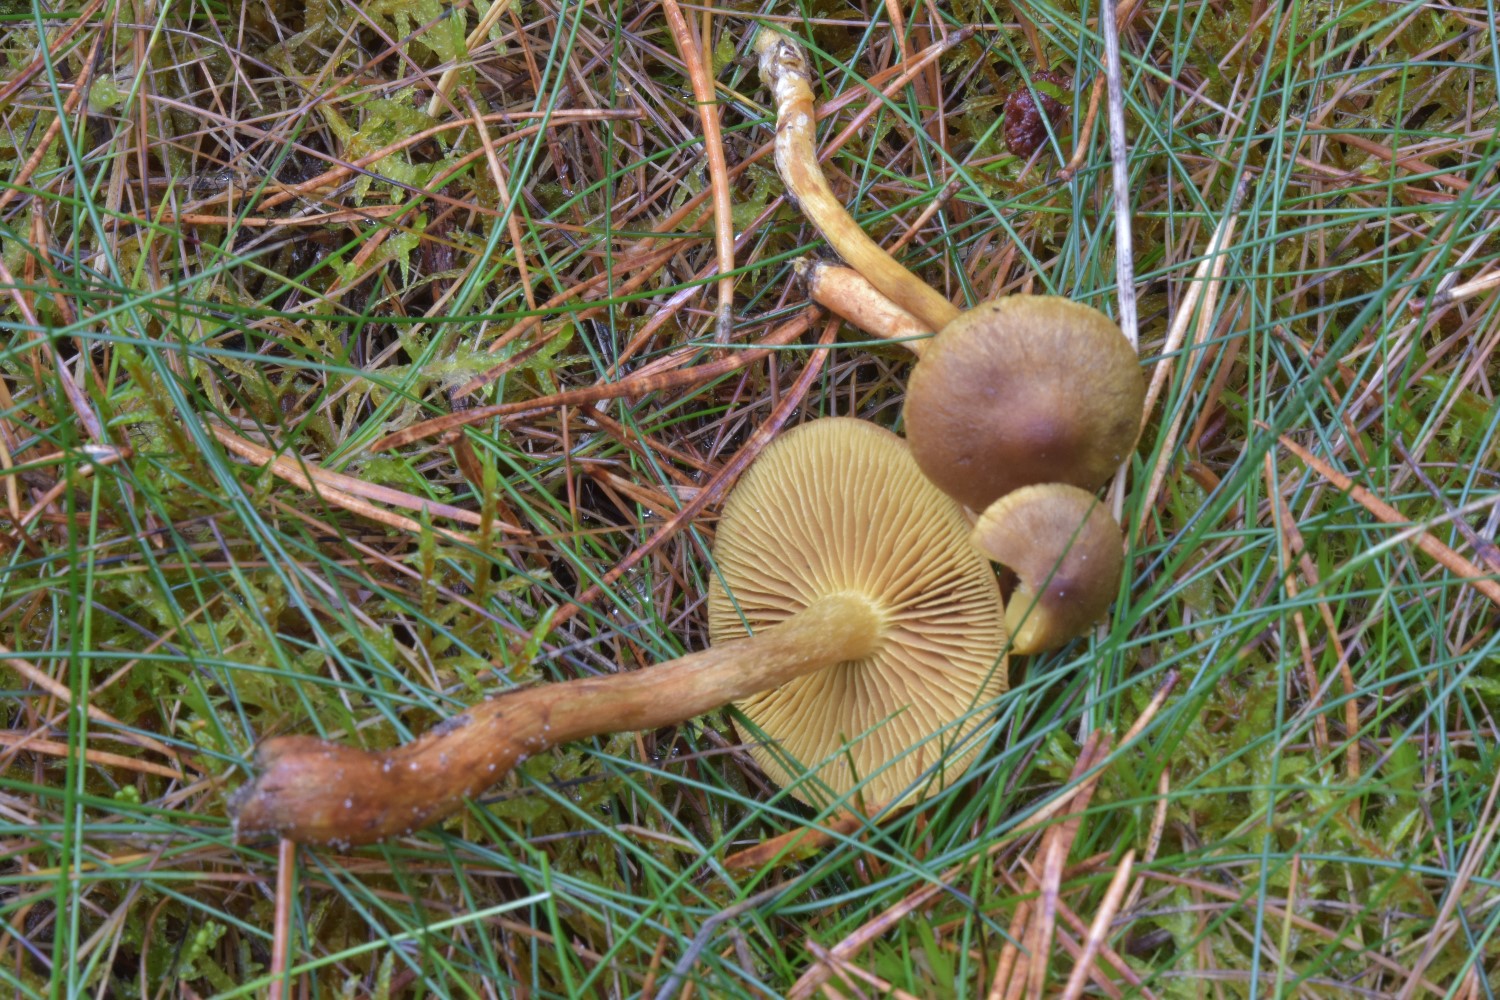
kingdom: Fungi
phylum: Basidiomycota
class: Agaricomycetes
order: Agaricales
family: Cortinariaceae
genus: Cortinarius
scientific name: Cortinarius
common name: gulbladet slørhat
